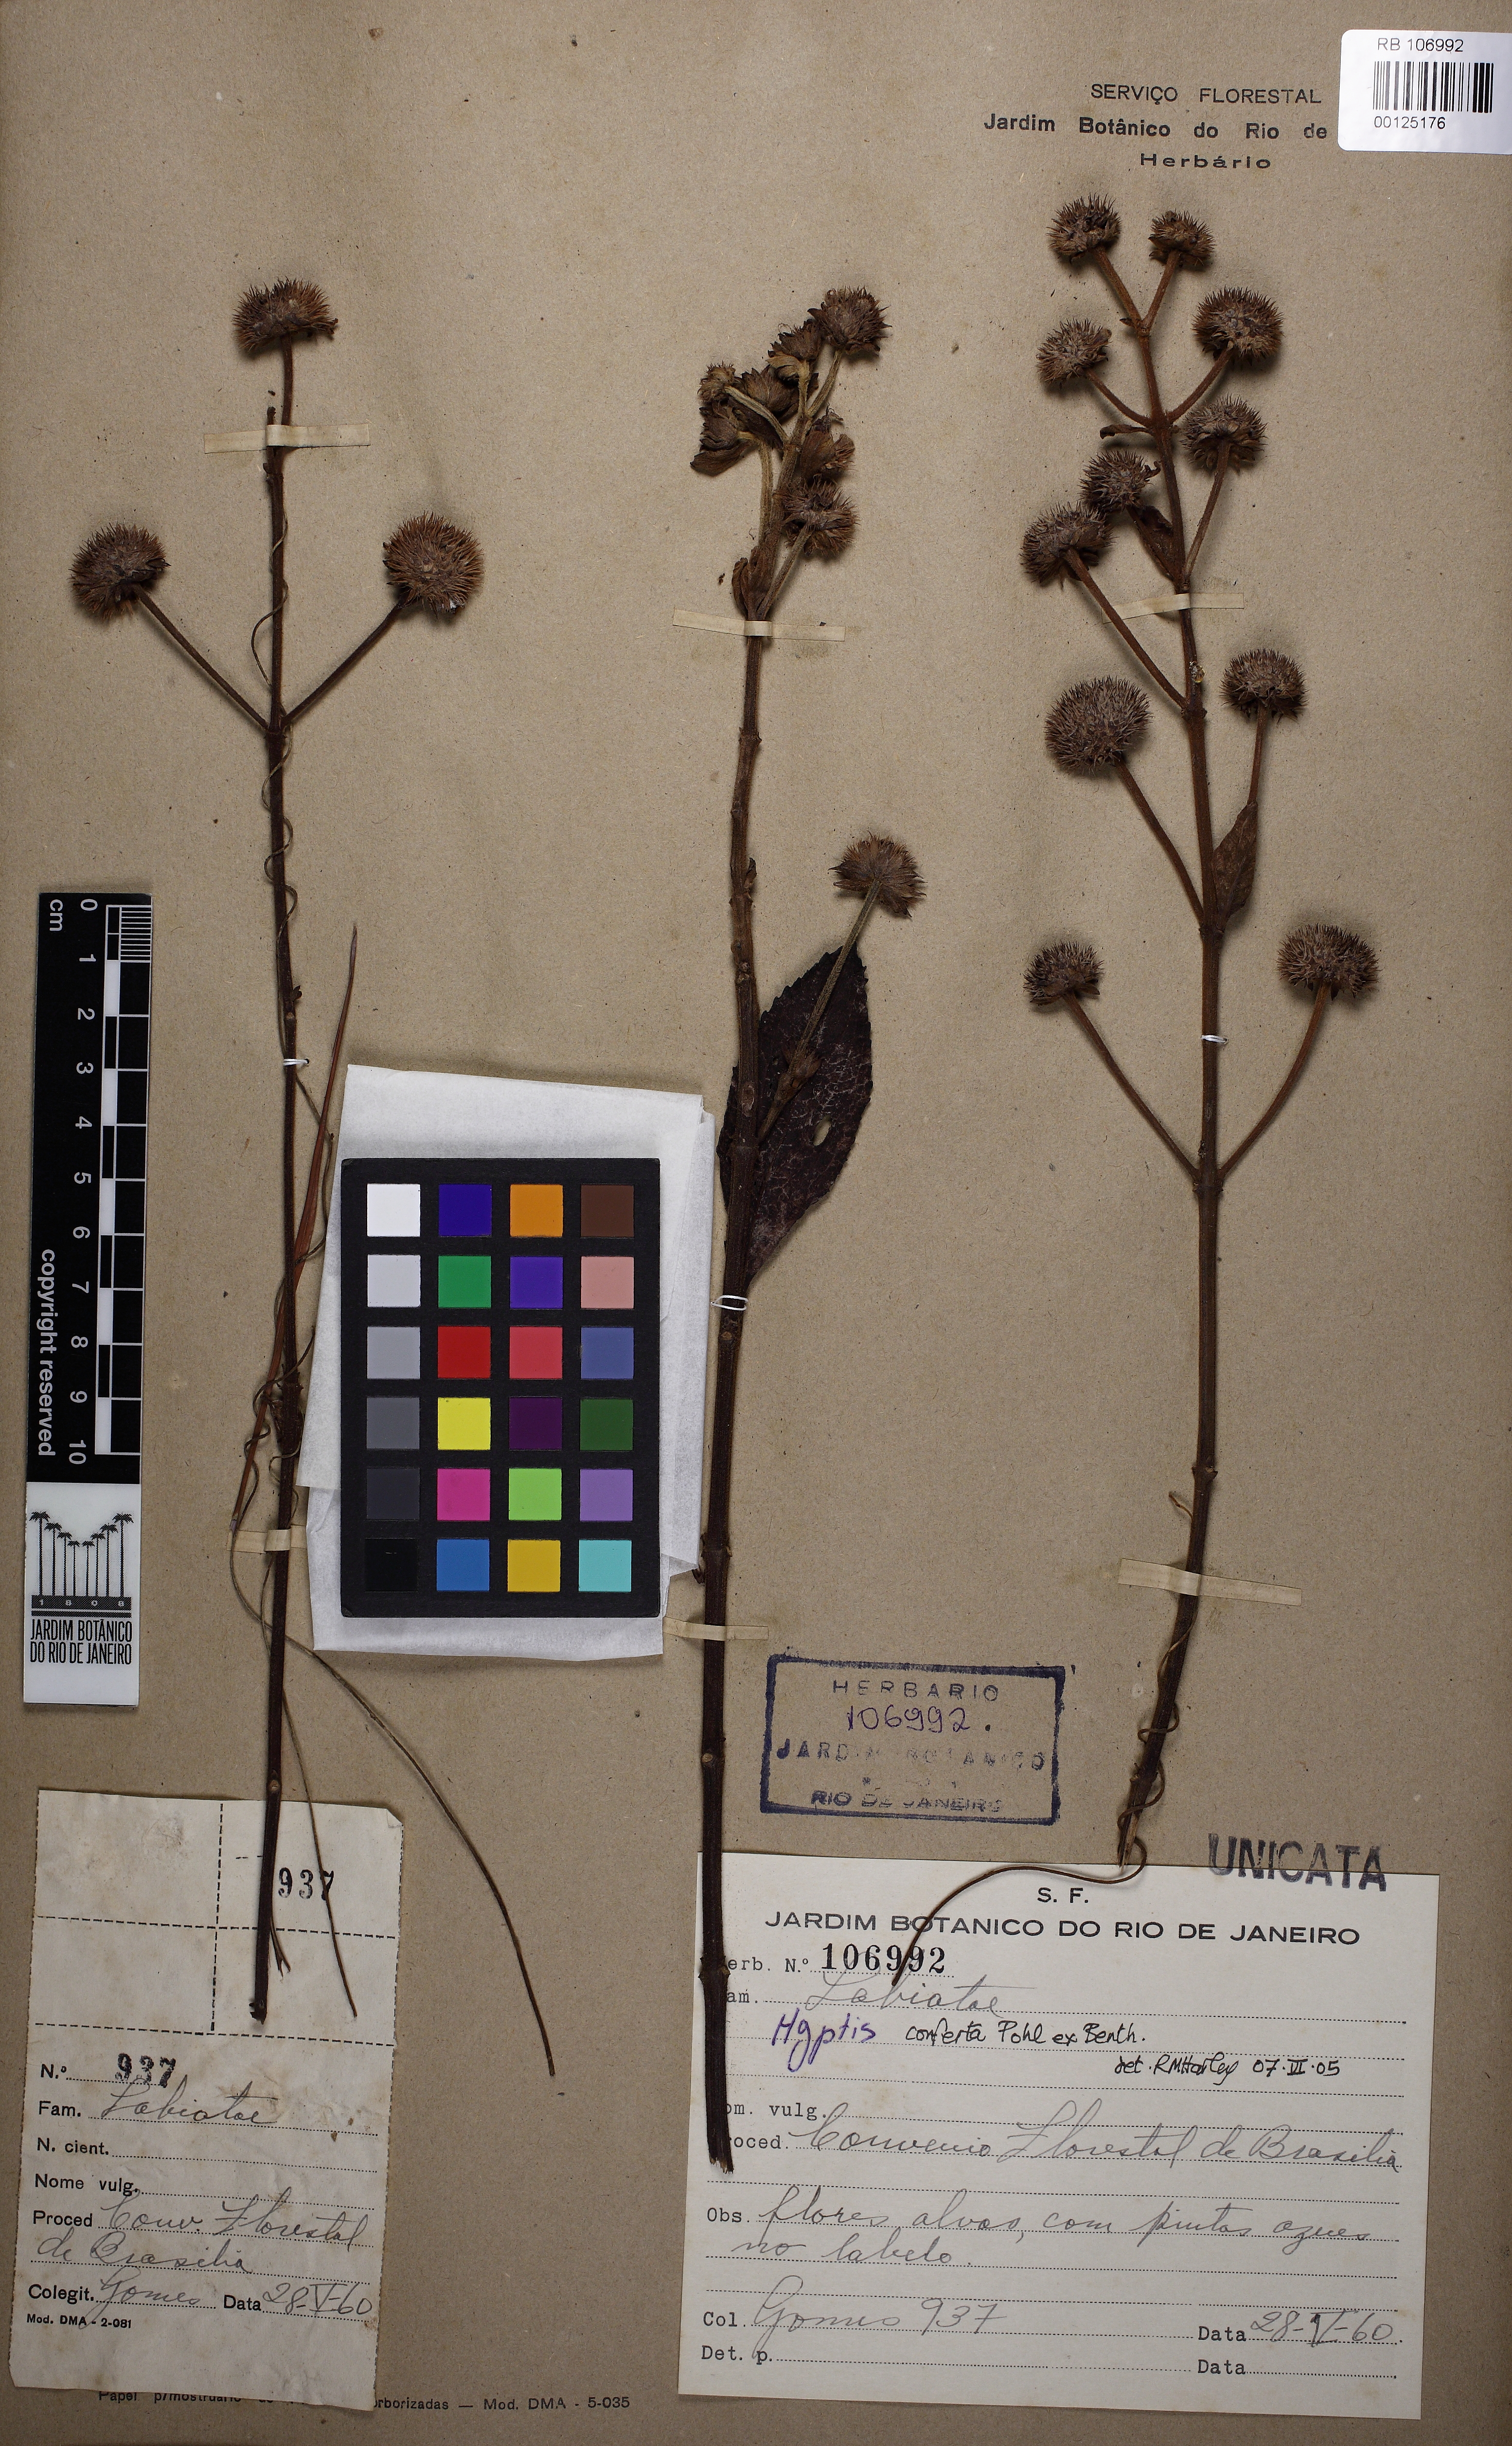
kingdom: Plantae
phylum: Tracheophyta
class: Magnoliopsida
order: Lamiales
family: Lamiaceae
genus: Hyptis
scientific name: Hyptis conferta
